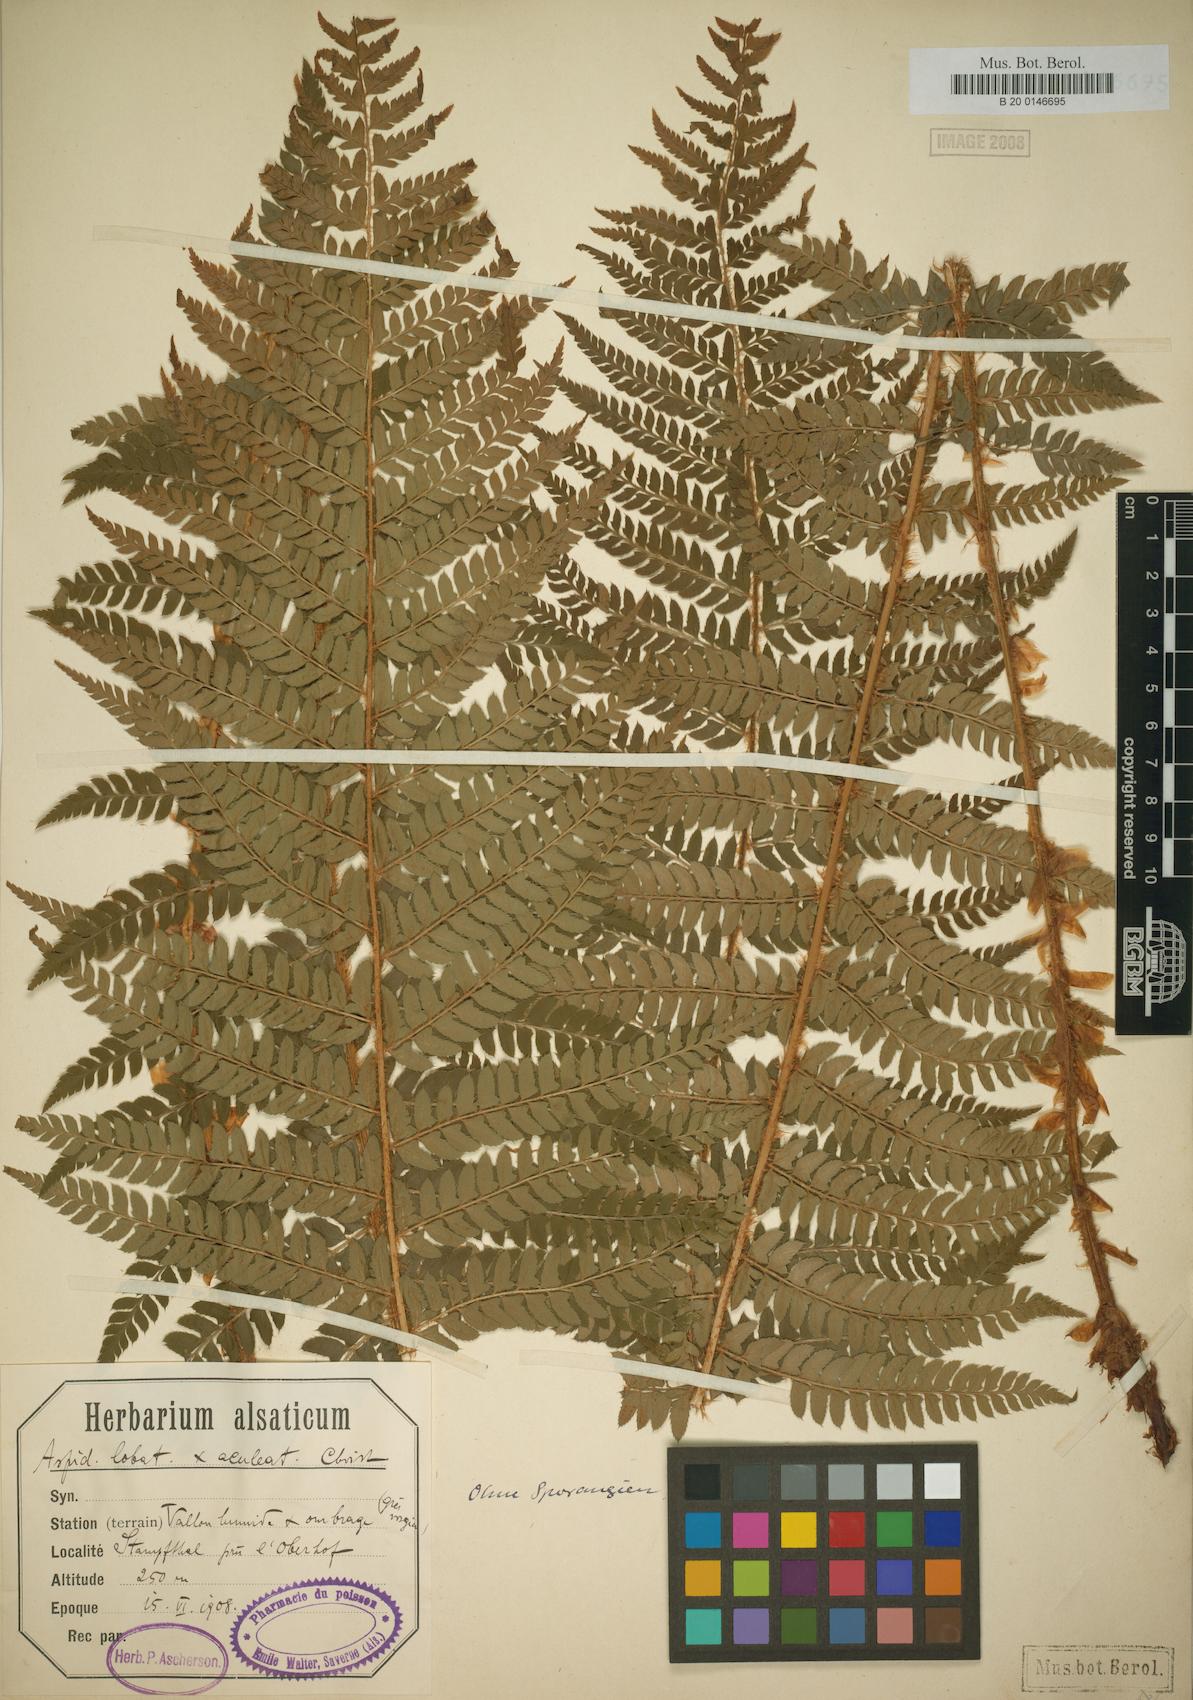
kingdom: Plantae
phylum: Tracheophyta
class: Polypodiopsida
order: Polypodiales
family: Dryopteridaceae
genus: Polystichum
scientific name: Polystichum bicknellii
